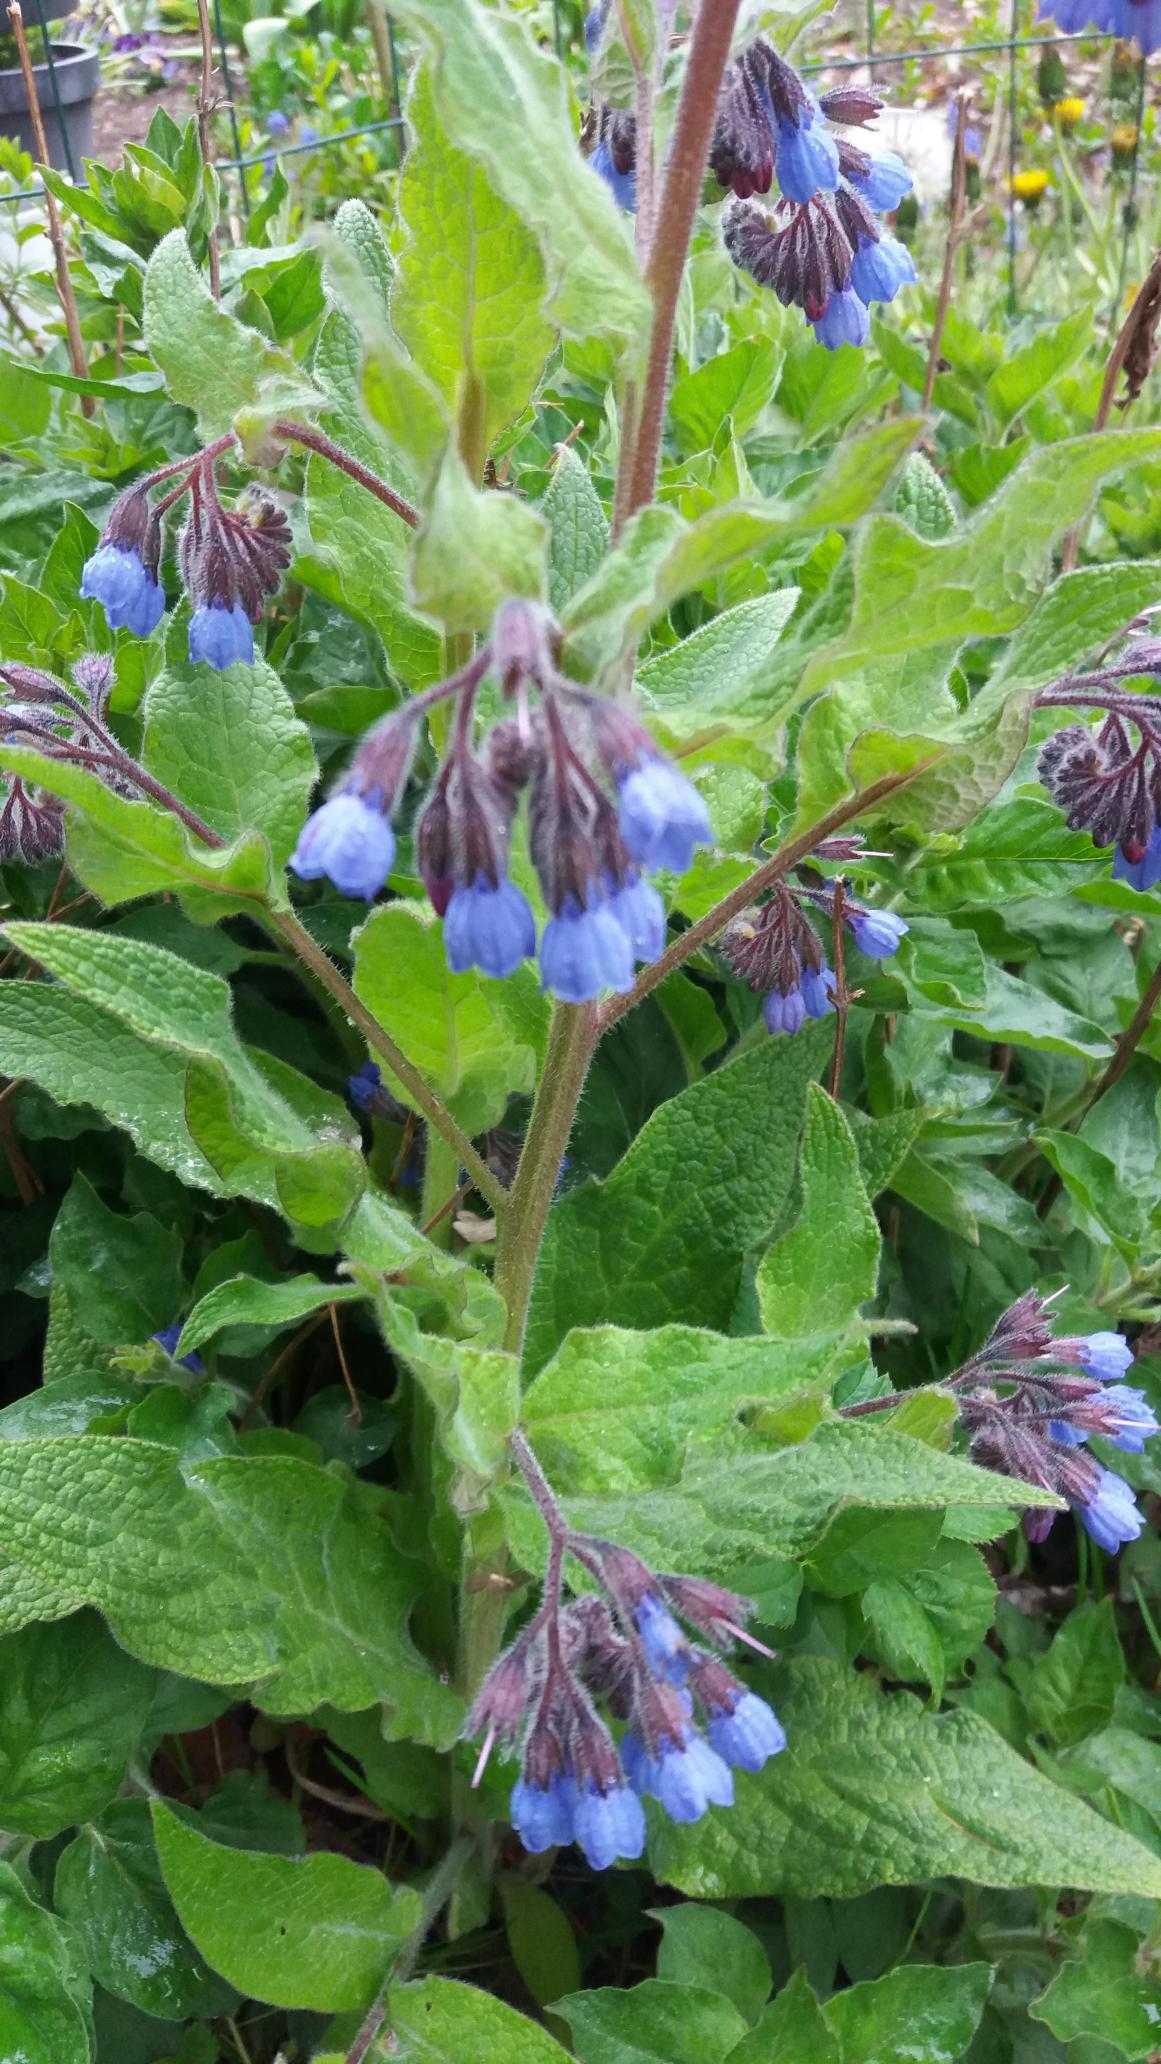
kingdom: Plantae
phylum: Tracheophyta
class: Magnoliopsida
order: Boraginales
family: Boraginaceae
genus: Symphytum
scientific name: Symphytum caucasicum
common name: Kaukasisk kulsukker
